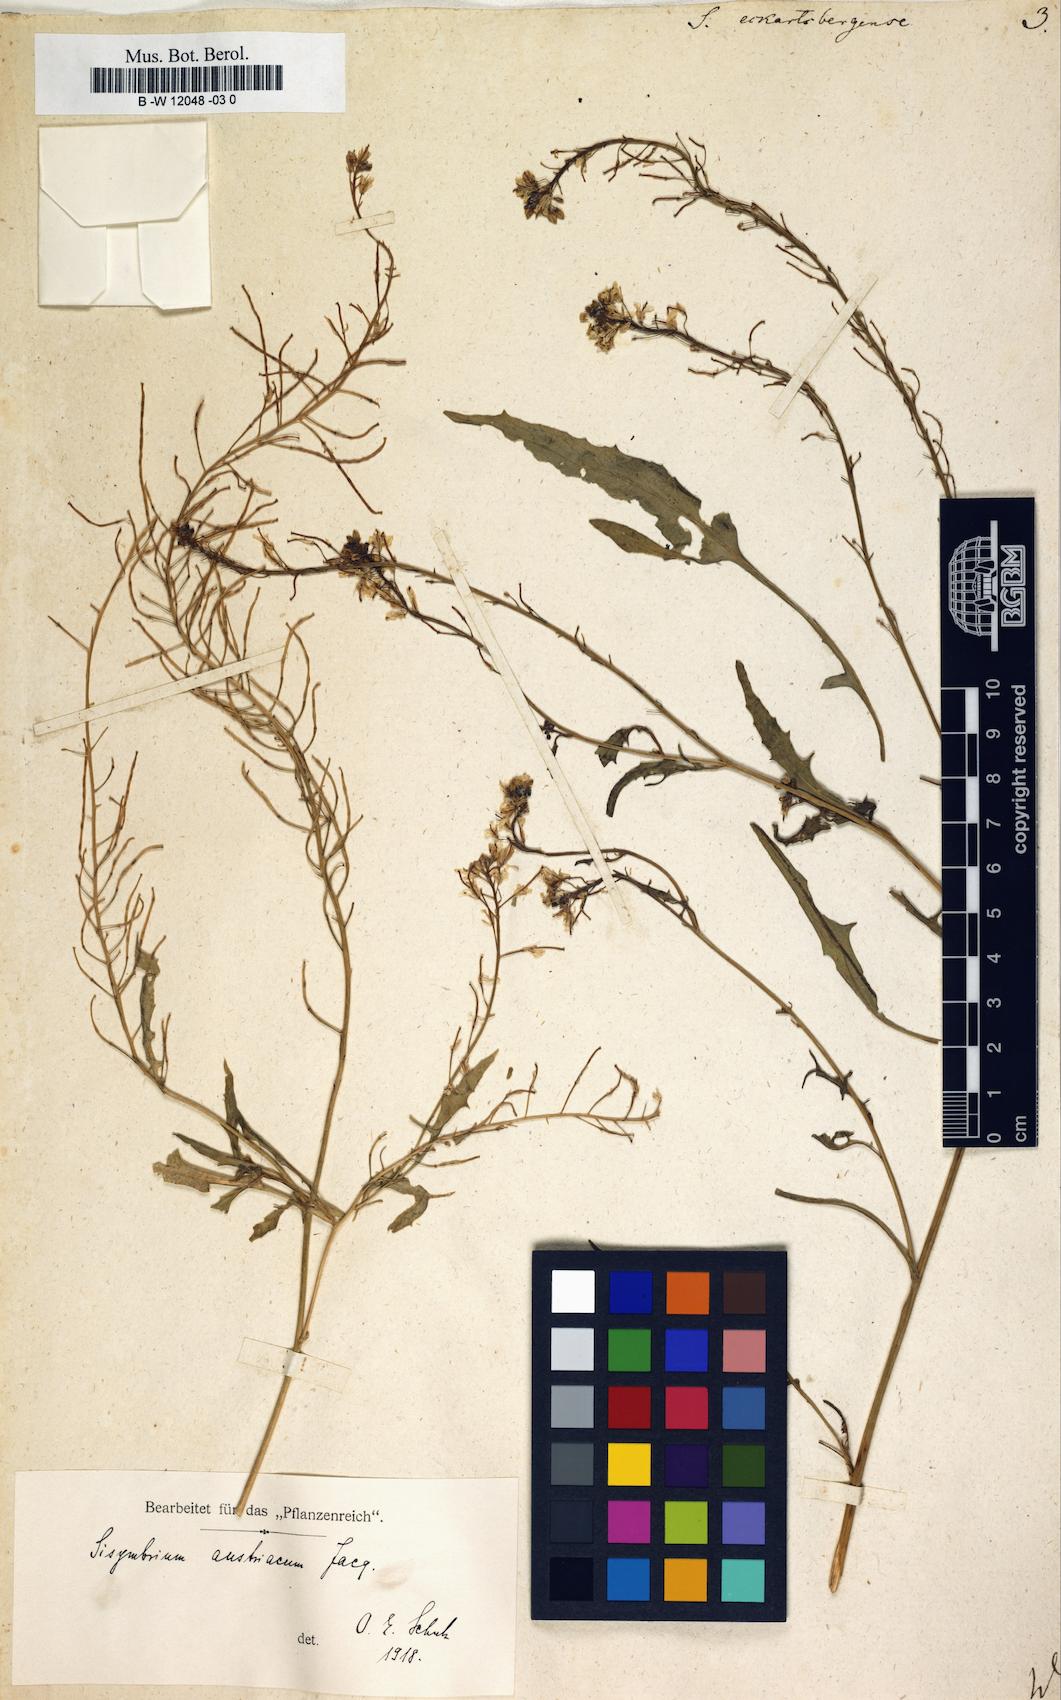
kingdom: Plantae
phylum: Tracheophyta
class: Magnoliopsida
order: Brassicales
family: Brassicaceae
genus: Sisymbrium
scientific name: Sisymbrium austriacum
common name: Jeweled rocket
